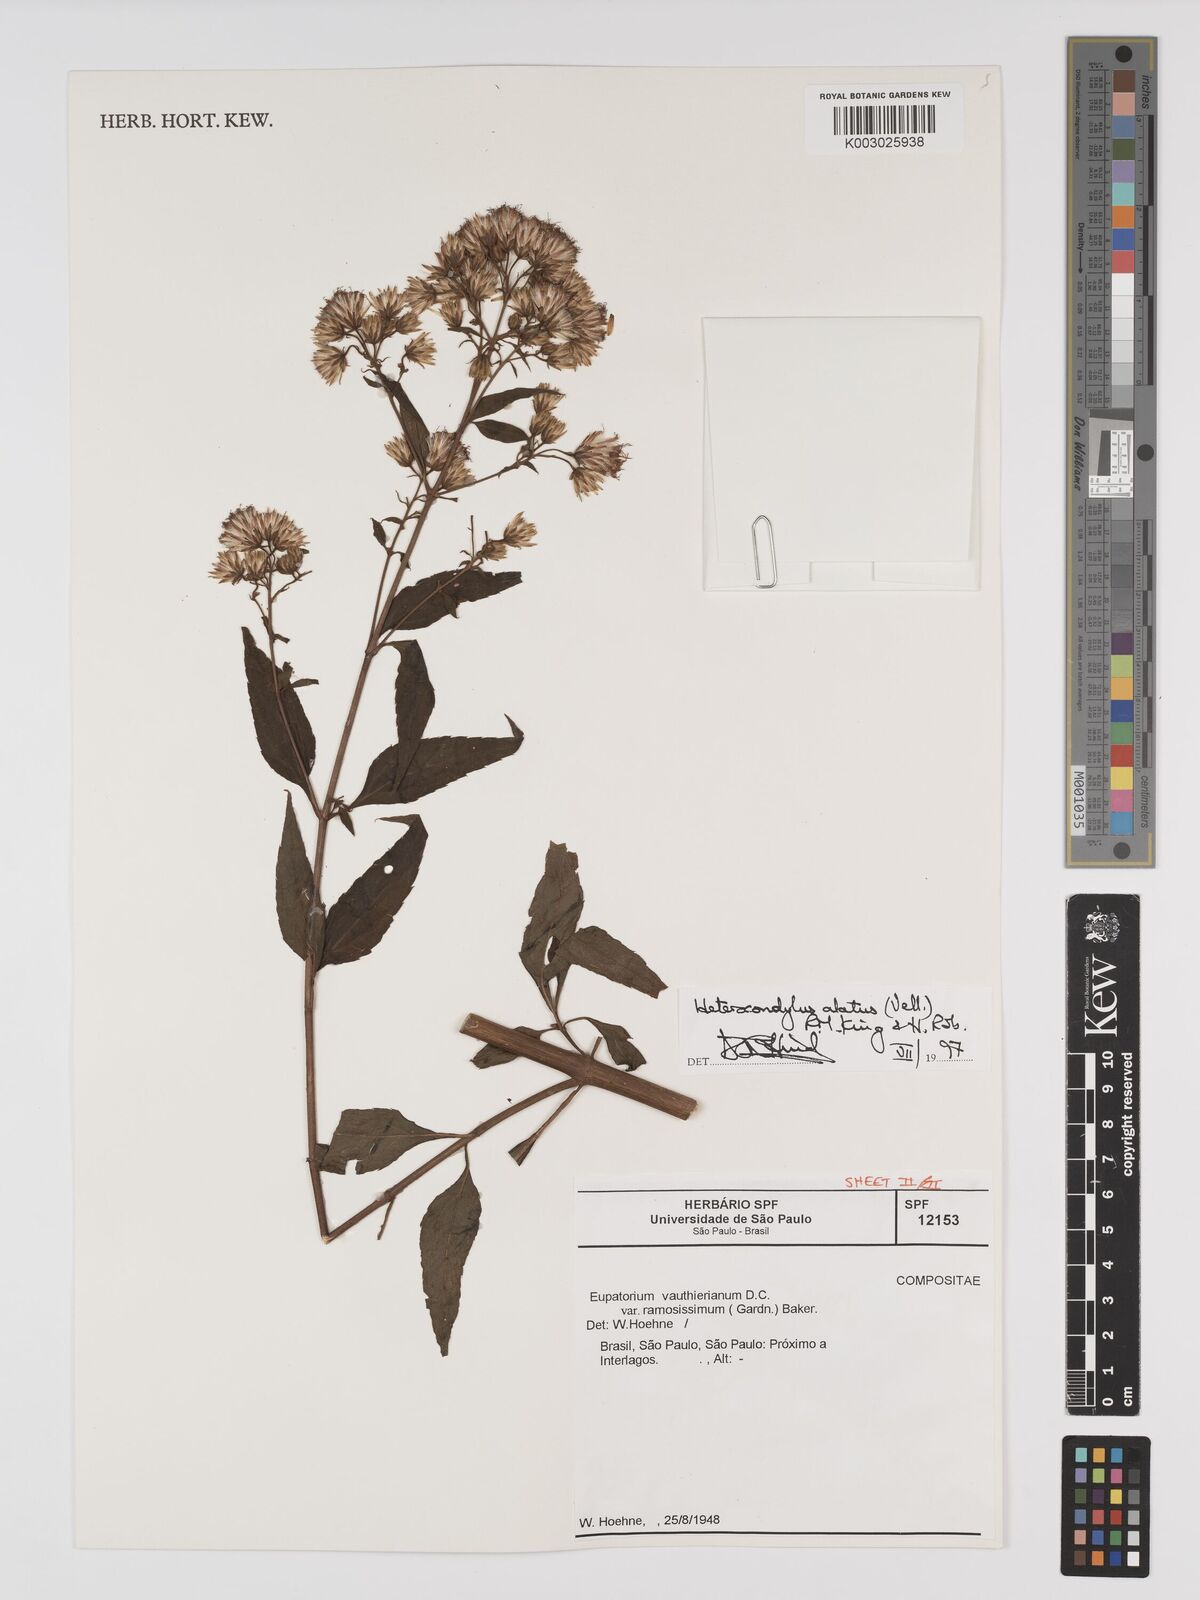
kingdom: Plantae
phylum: Tracheophyta
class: Magnoliopsida
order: Asterales
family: Asteraceae
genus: Heterocondylus
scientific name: Heterocondylus alatus
